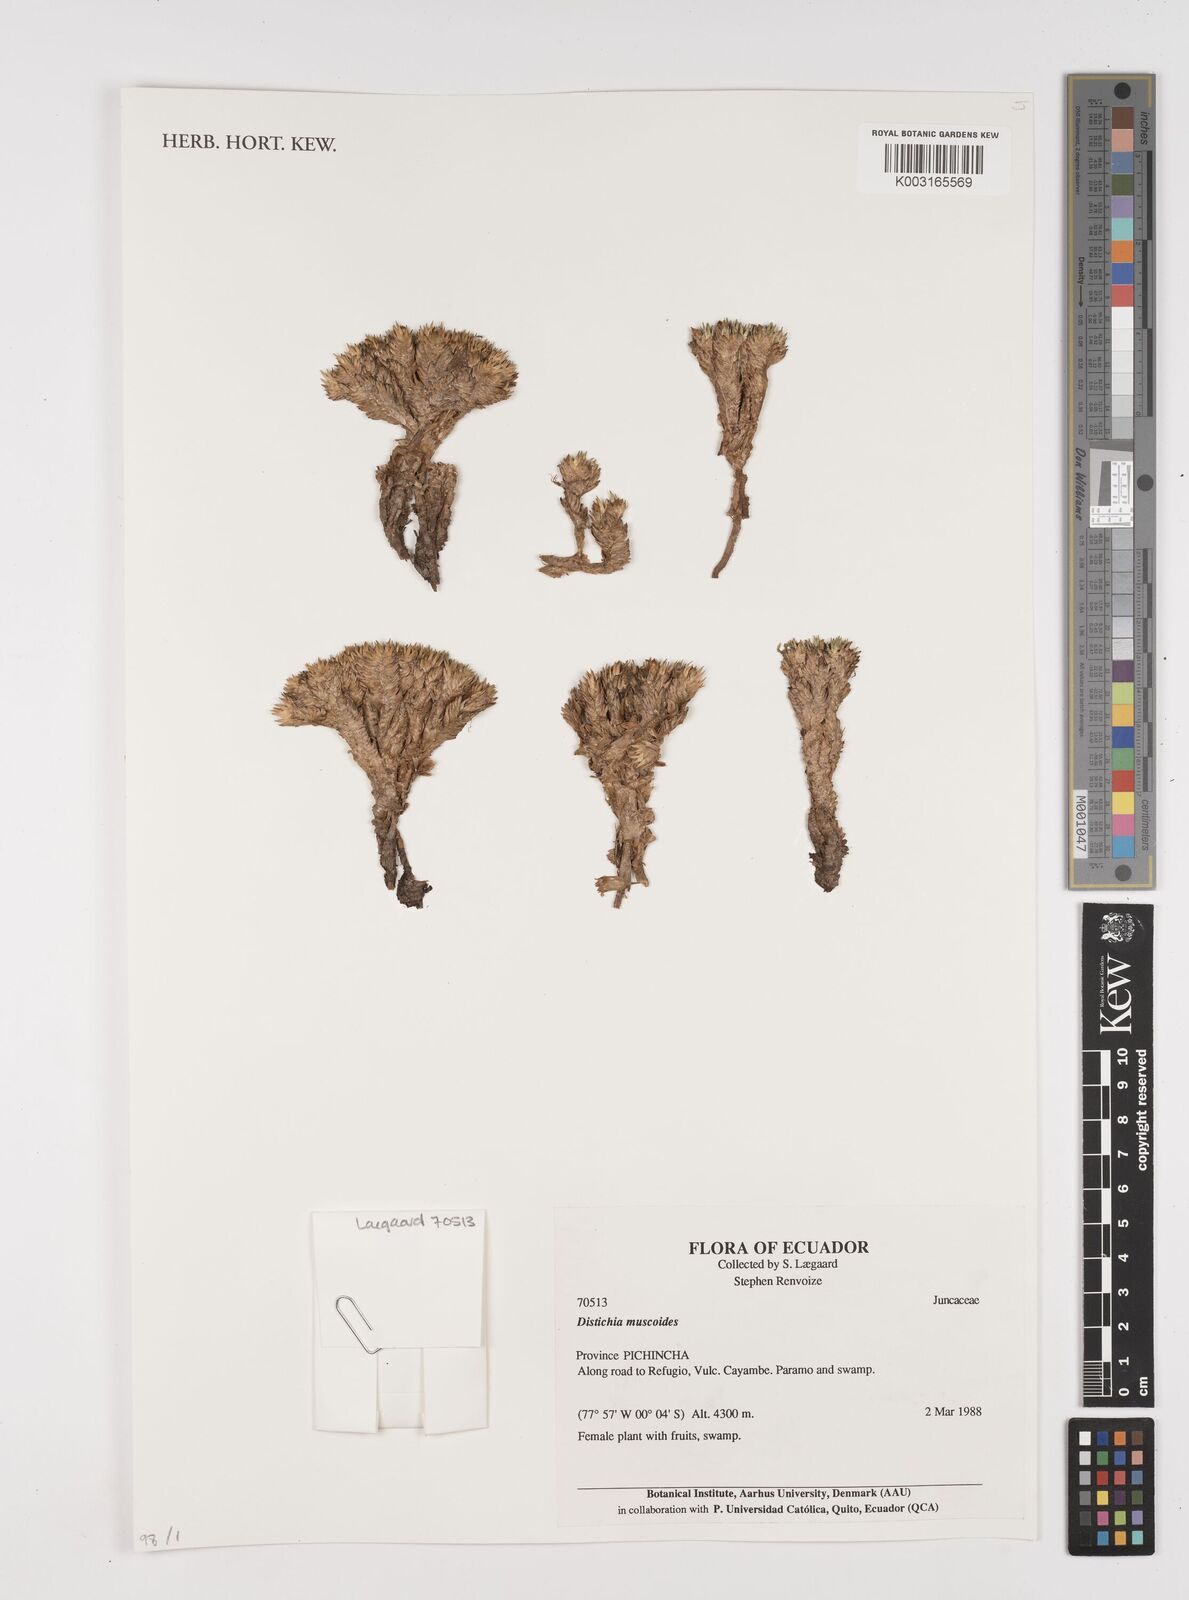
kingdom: Plantae
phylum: Tracheophyta
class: Liliopsida
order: Poales
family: Juncaceae
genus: Distichia
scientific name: Distichia muscoides
